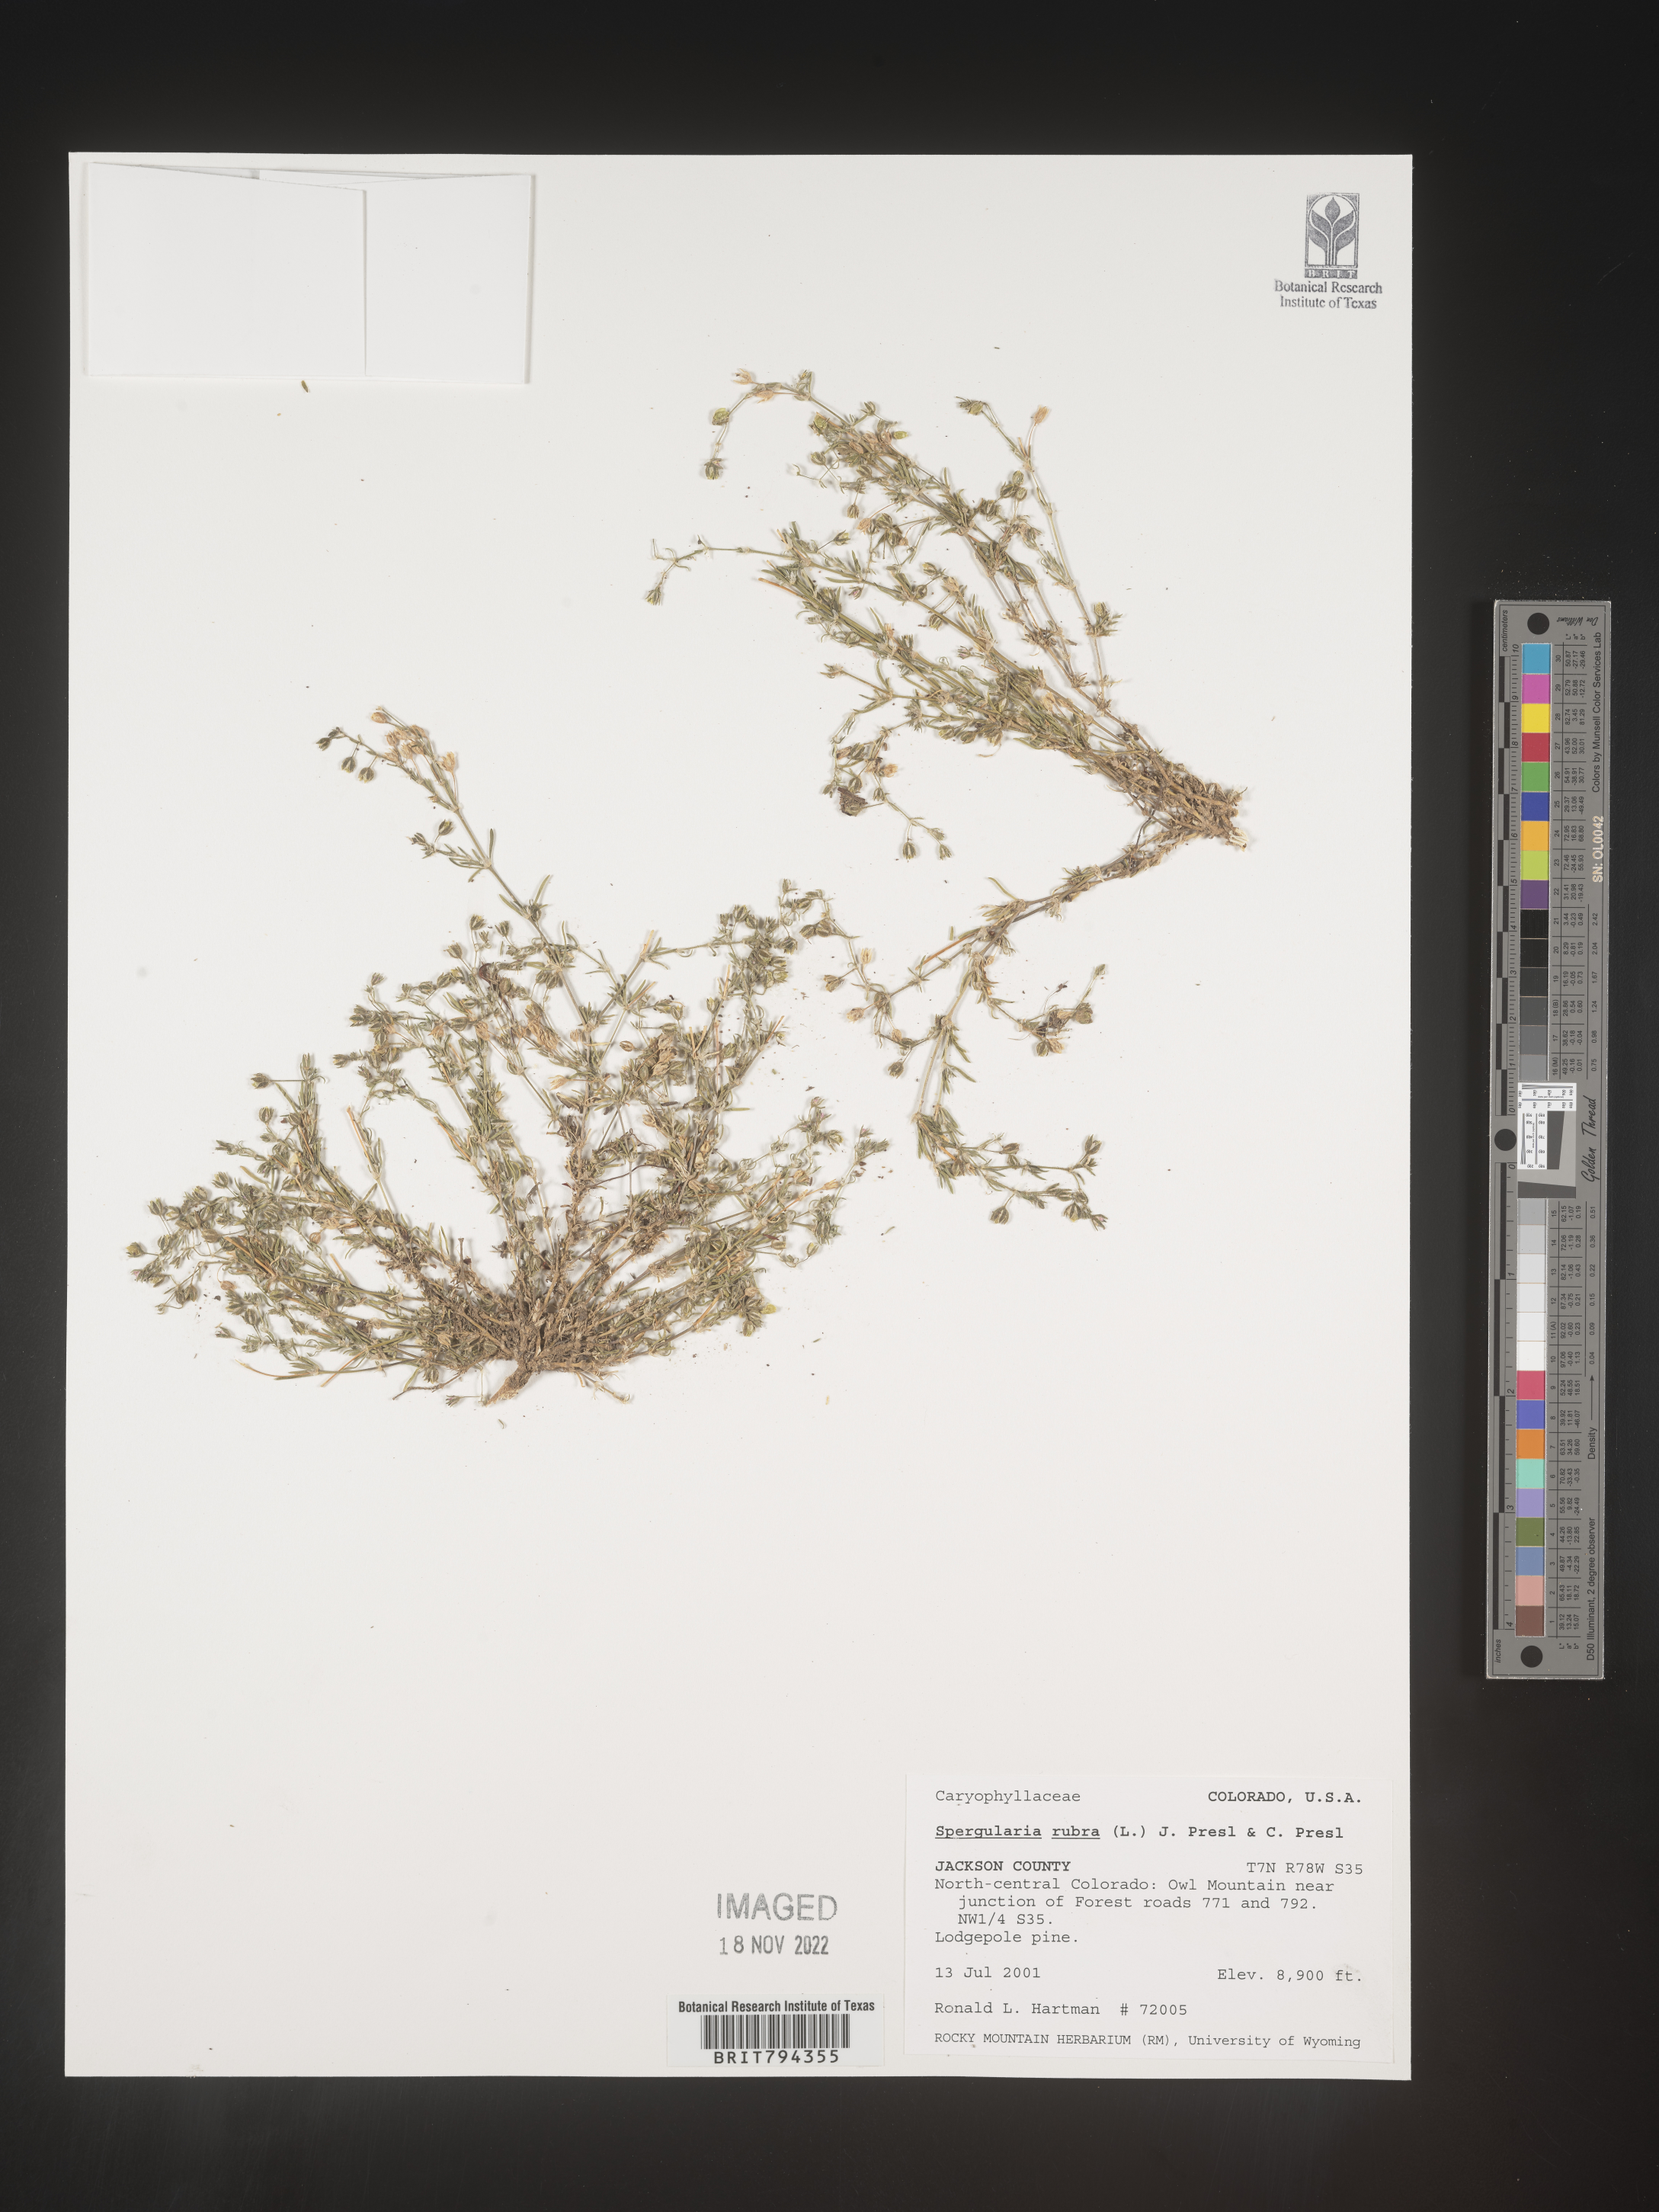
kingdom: Plantae
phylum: Tracheophyta
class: Magnoliopsida
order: Caryophyllales
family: Caryophyllaceae
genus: Spergularia
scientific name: Spergularia rubra
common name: Red sand-spurrey
